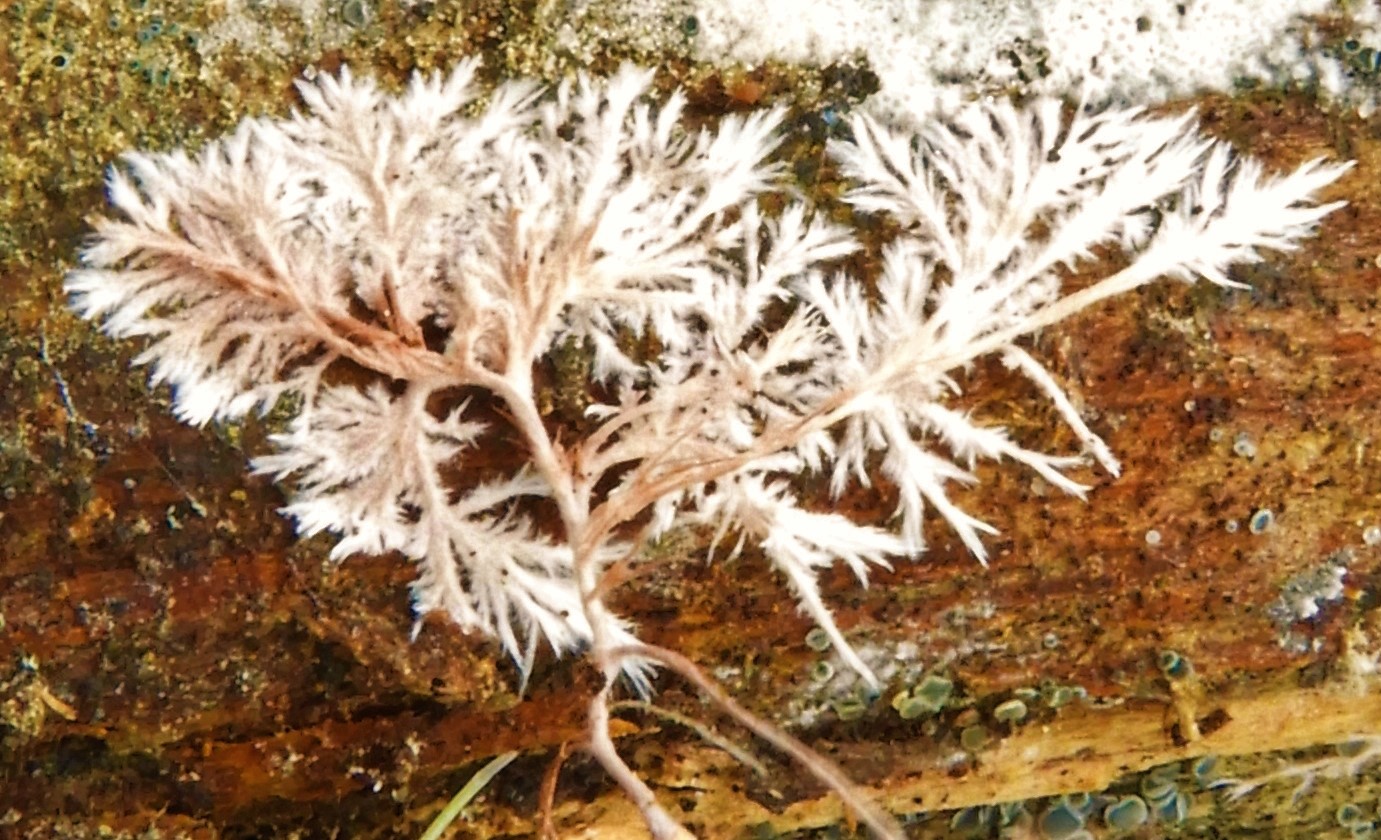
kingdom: Fungi
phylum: Basidiomycota
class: Agaricomycetes
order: Polyporales
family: Steccherinaceae
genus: Steccherinum
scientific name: Steccherinum fimbriatum
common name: trådet skønpig
